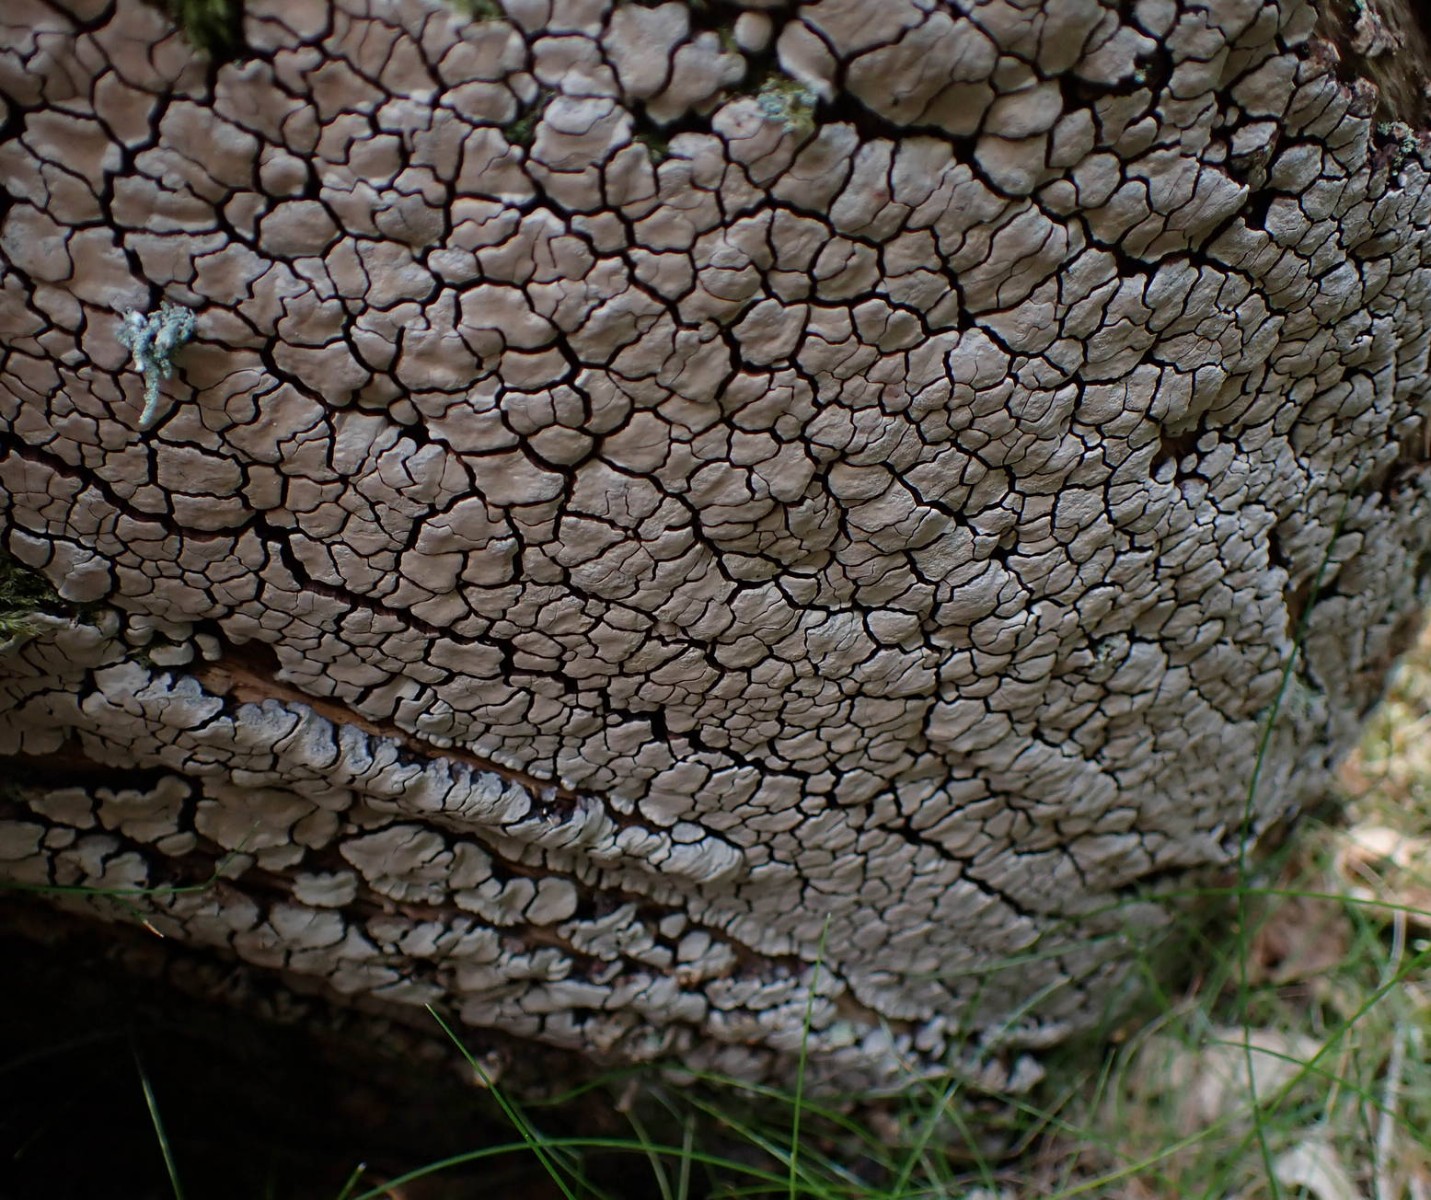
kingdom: Fungi
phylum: Basidiomycota
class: Agaricomycetes
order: Russulales
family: Stereaceae
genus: Xylobolus
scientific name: Xylobolus frustulatus
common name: mønster-lædersvamp
